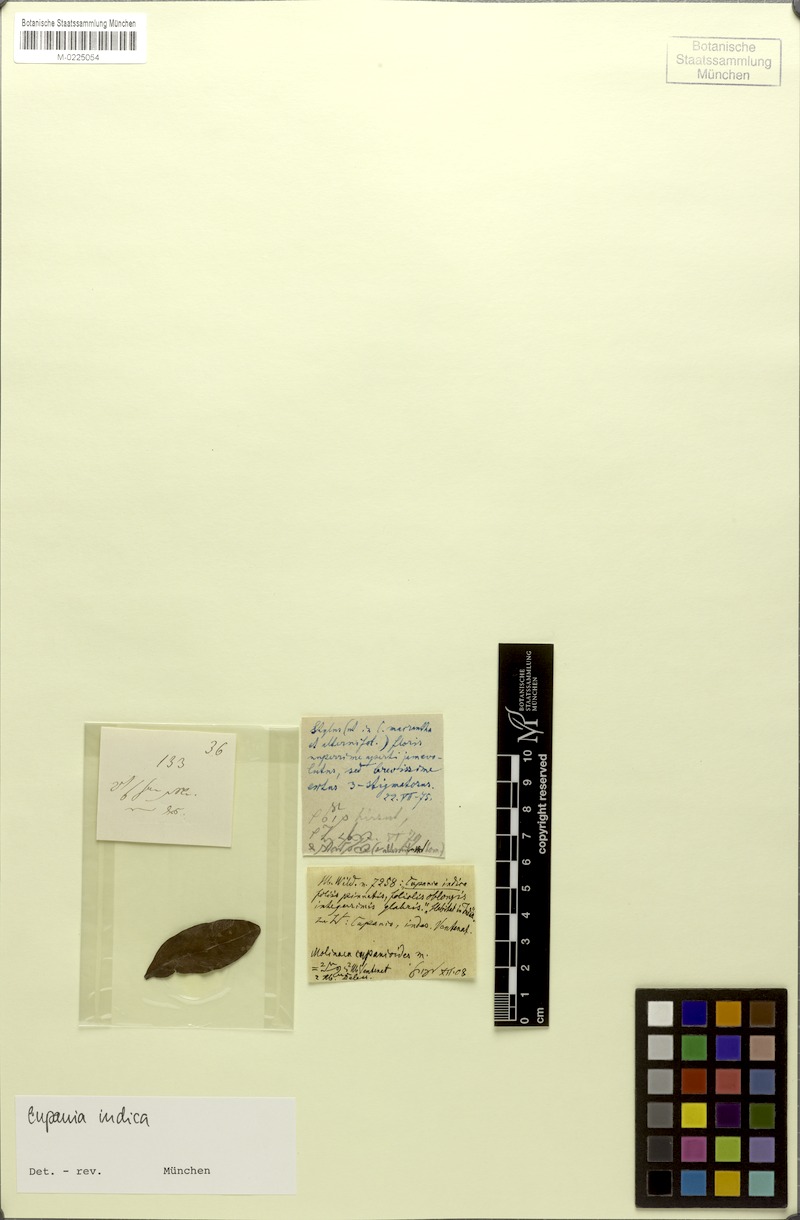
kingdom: Plantae
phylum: Tracheophyta
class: Magnoliopsida
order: Sapindales
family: Sapindaceae
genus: Molinaea
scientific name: Molinaea laevis
